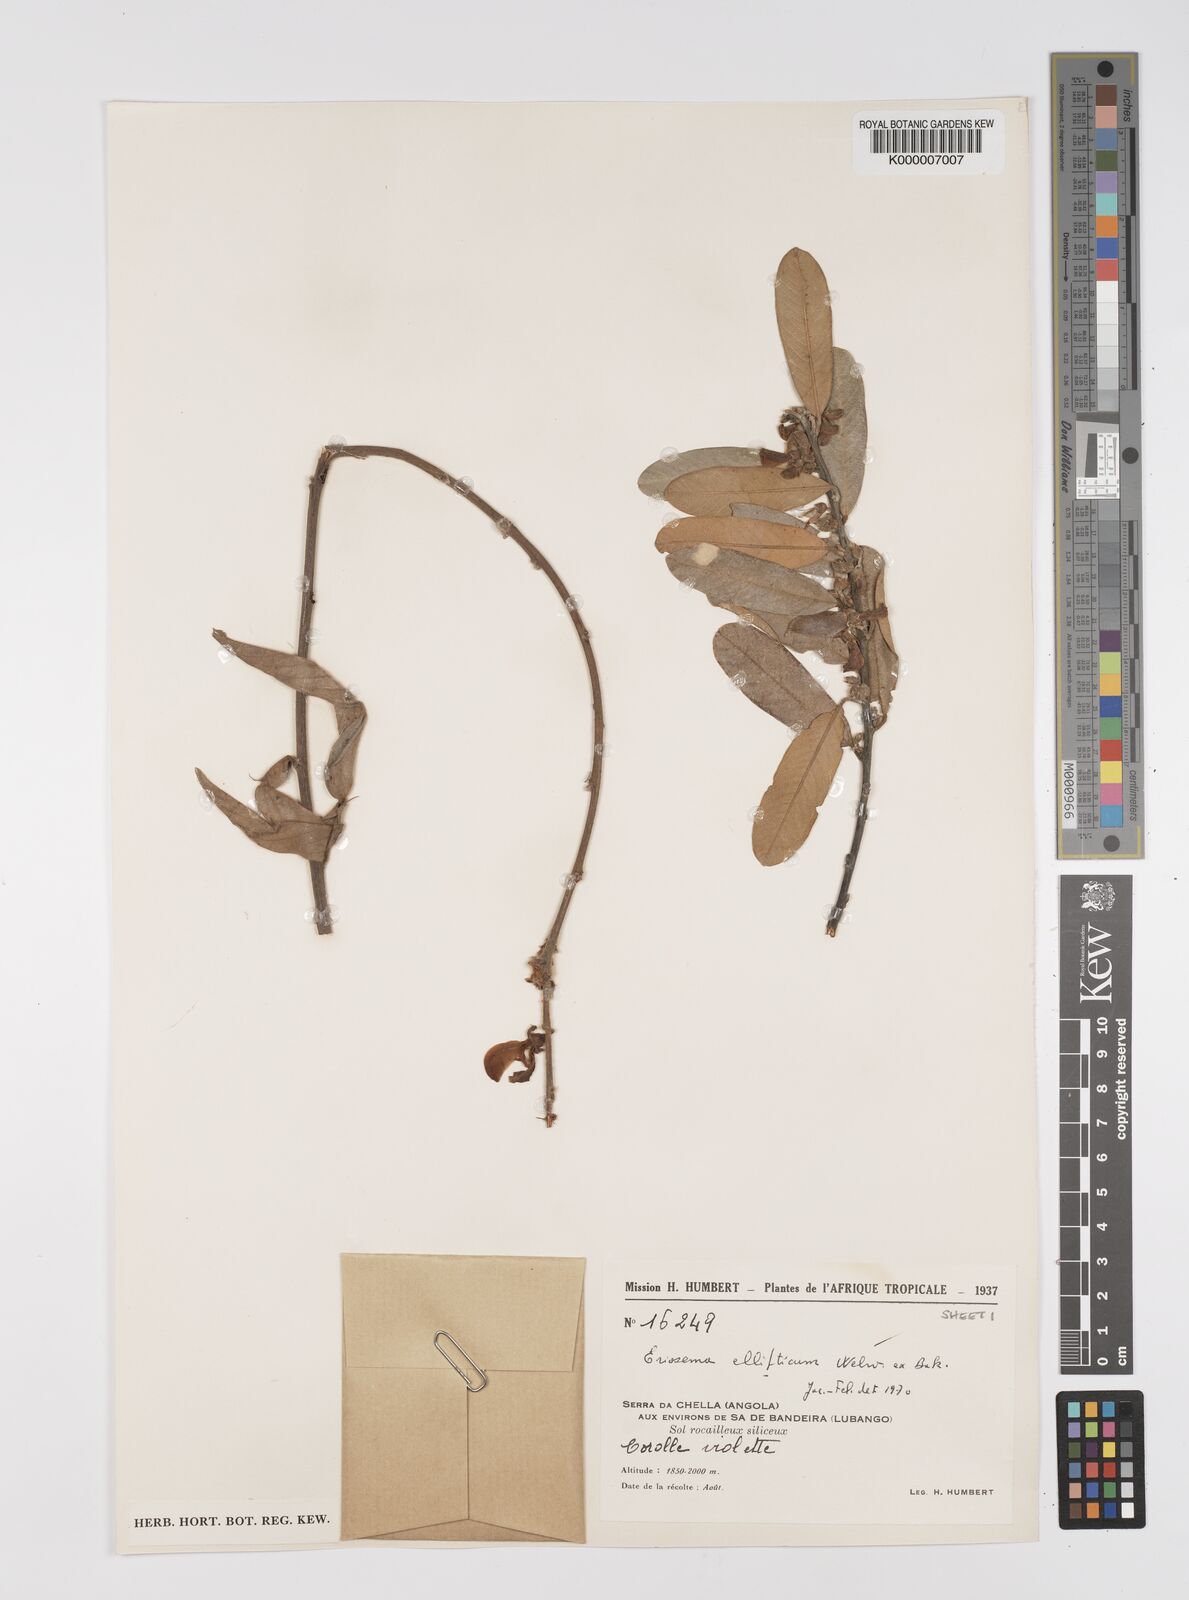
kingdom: Plantae
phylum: Tracheophyta
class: Magnoliopsida
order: Fabales
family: Fabaceae
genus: Eriosema
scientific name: Eriosema ellipticum
